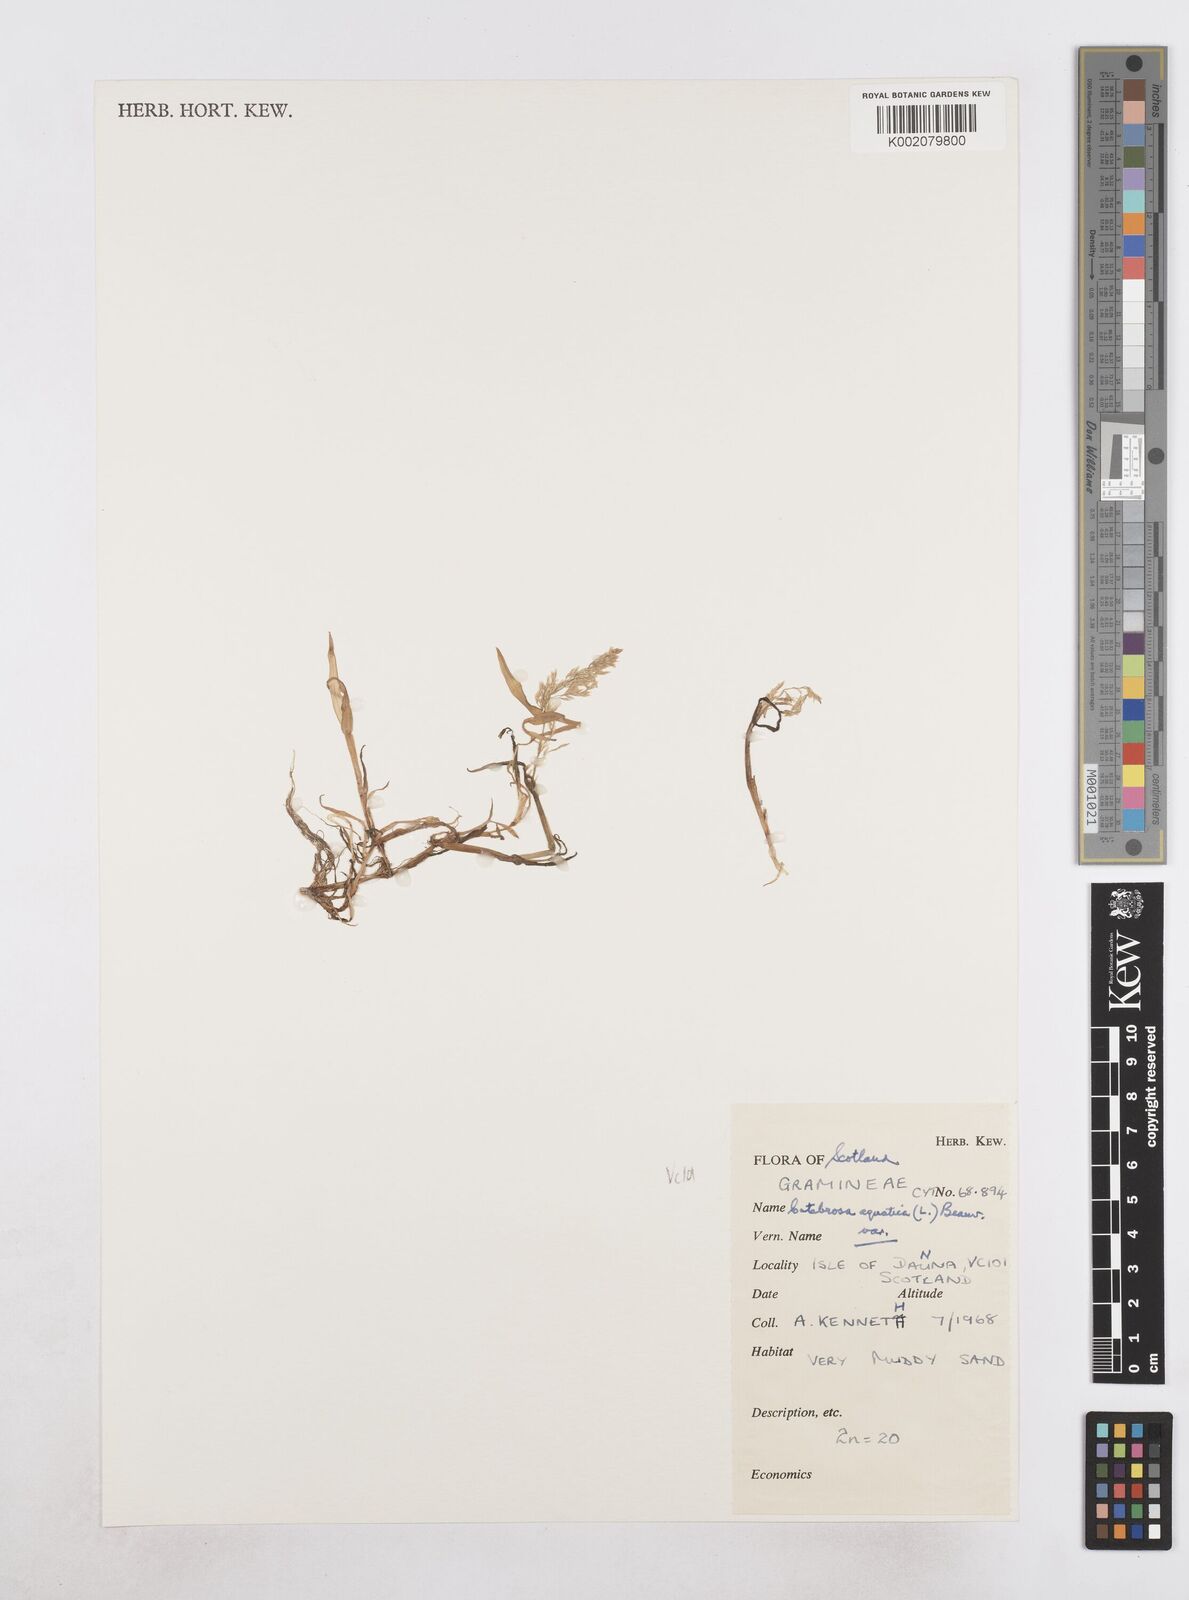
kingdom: Plantae
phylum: Tracheophyta
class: Liliopsida
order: Poales
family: Poaceae
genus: Catabrosa
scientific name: Catabrosa aquatica
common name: Whorl-grass
